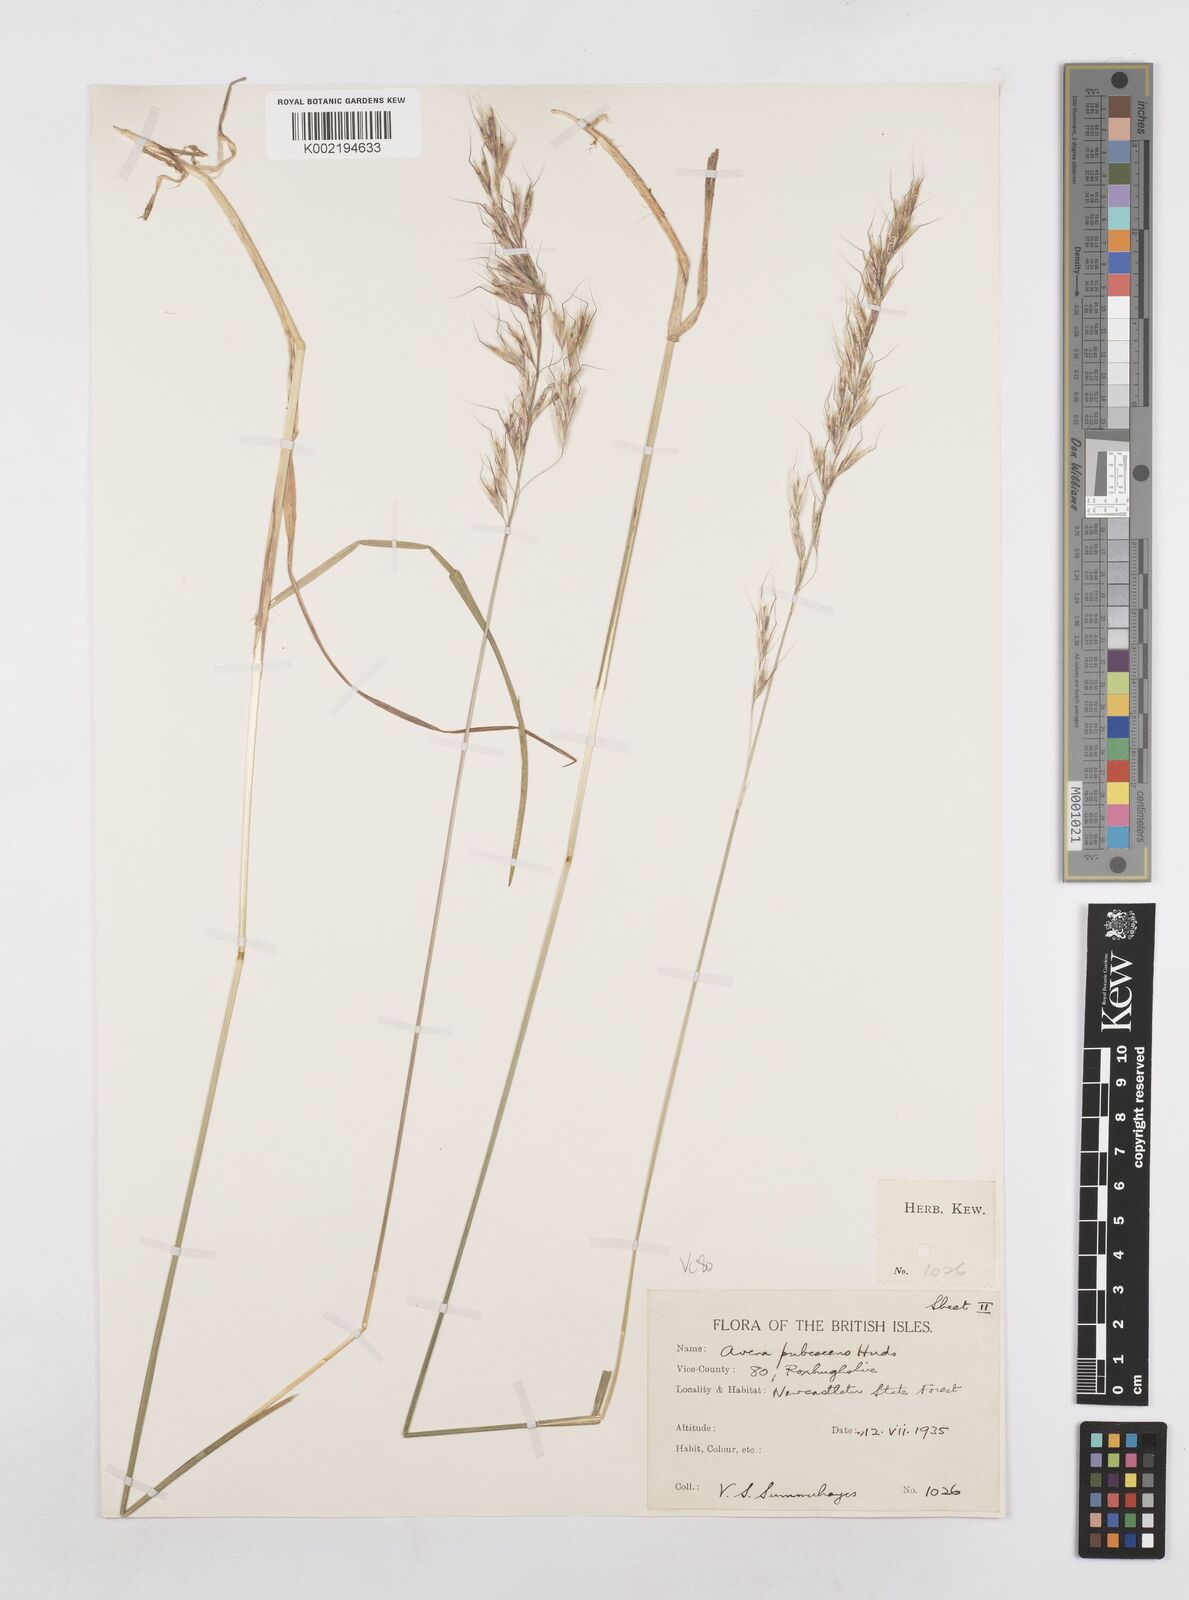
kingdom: Plantae
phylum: Tracheophyta
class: Liliopsida
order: Poales
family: Poaceae
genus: Avenula
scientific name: Avenula pubescens
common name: Downy alpine oatgrass
